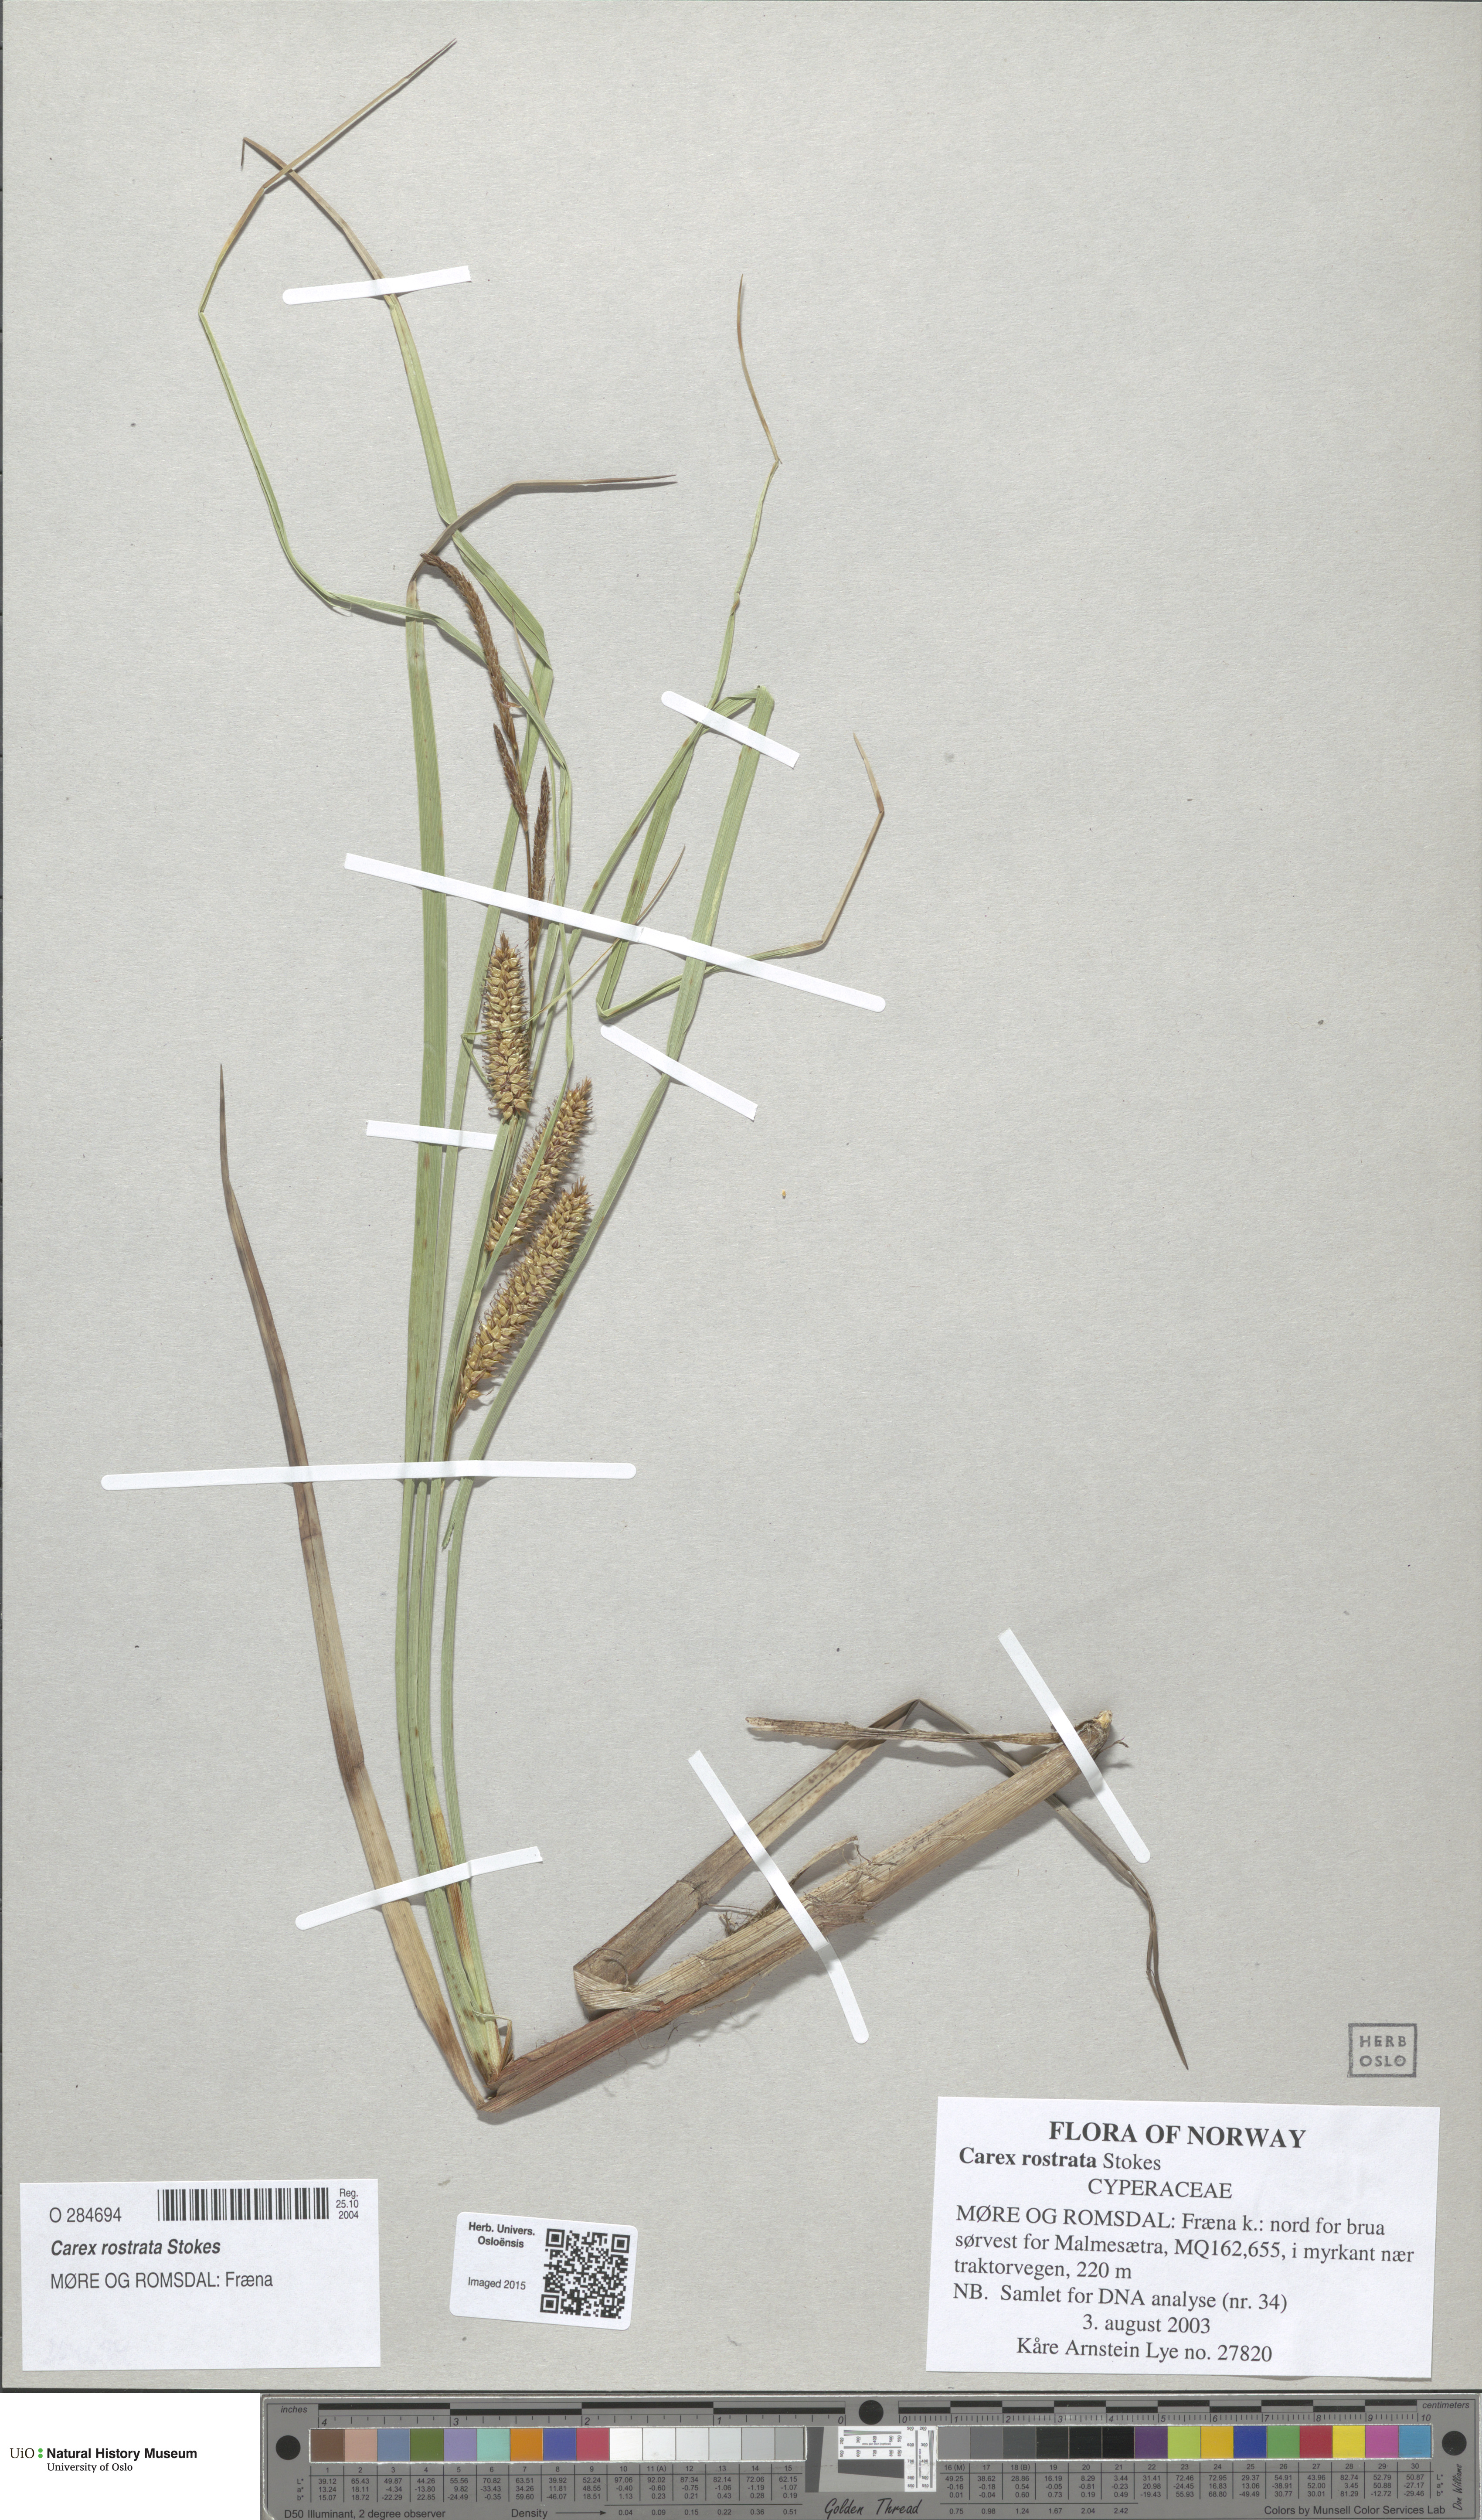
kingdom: Plantae
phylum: Tracheophyta
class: Liliopsida
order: Poales
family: Cyperaceae
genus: Carex
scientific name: Carex rostrata
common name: Bottle sedge
